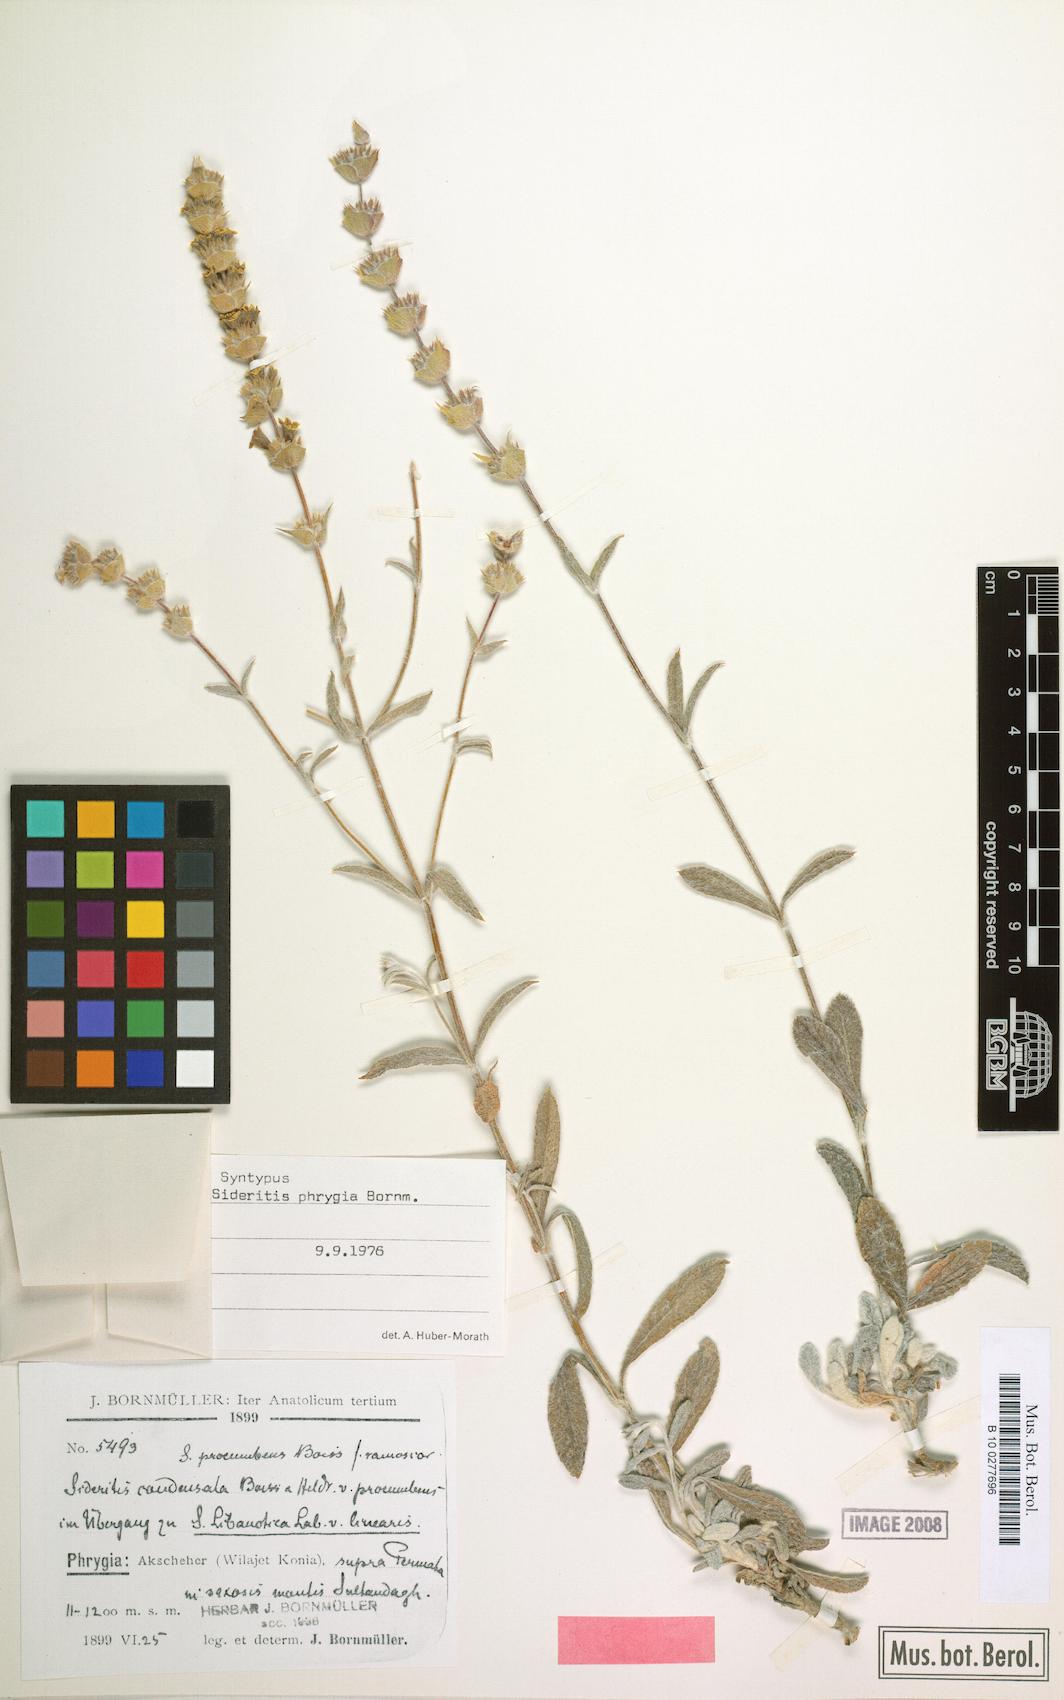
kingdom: Plantae
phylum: Tracheophyta
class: Magnoliopsida
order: Lamiales
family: Lamiaceae
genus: Sideritis
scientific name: Sideritis phrygia
